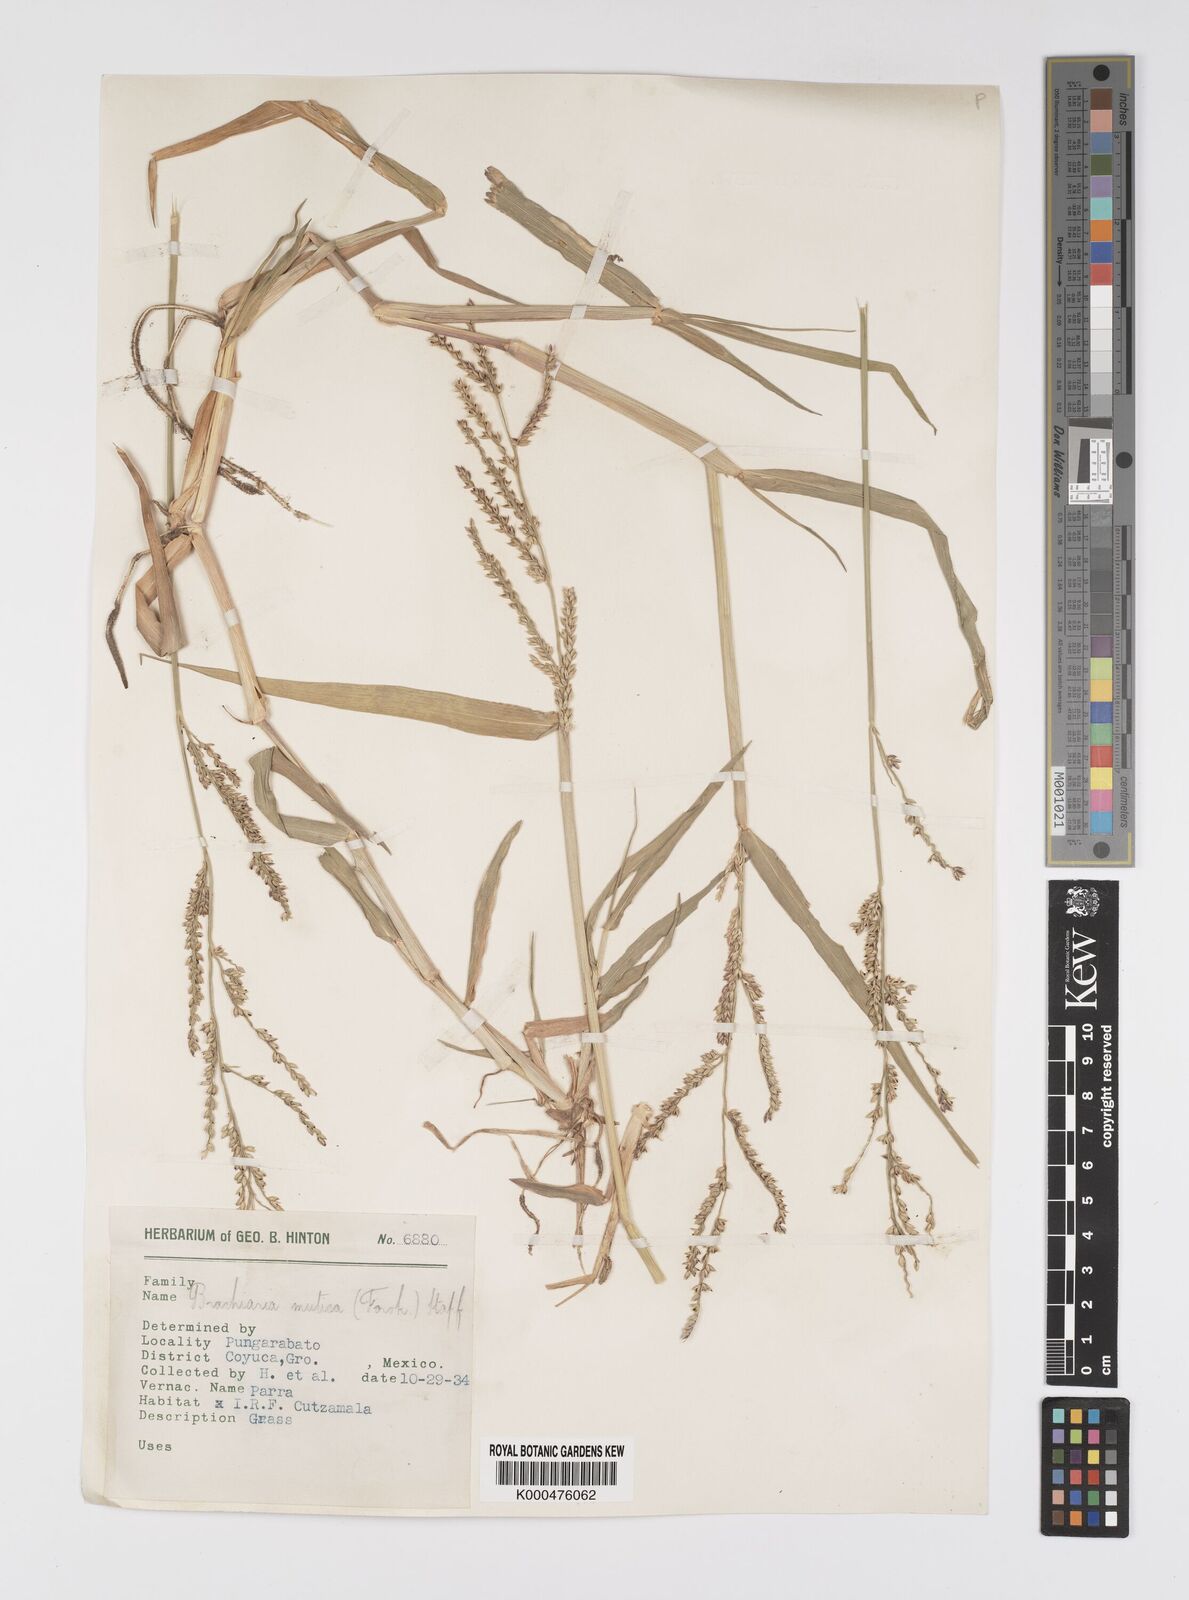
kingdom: Plantae
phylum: Tracheophyta
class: Liliopsida
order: Poales
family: Poaceae
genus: Urochloa
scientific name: Urochloa mutica
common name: Para grass
